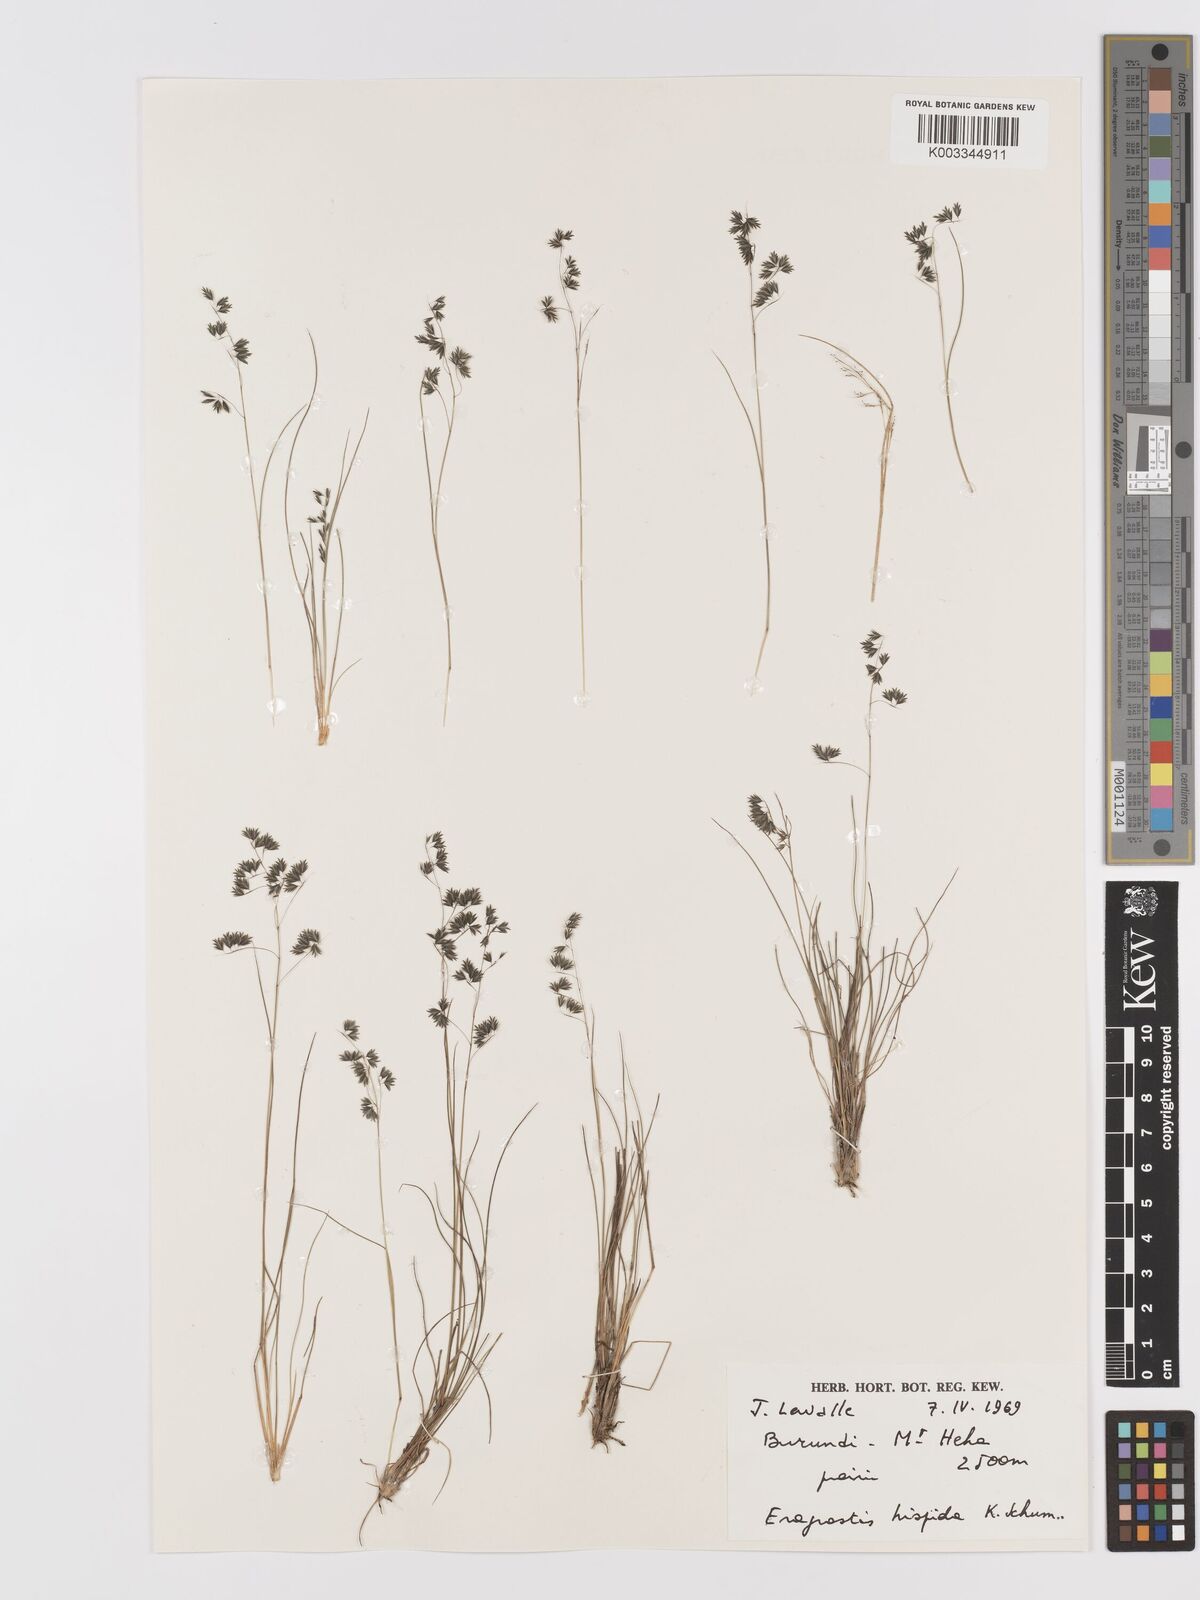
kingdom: Plantae
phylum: Tracheophyta
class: Liliopsida
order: Poales
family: Poaceae
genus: Eragrostis
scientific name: Eragrostis hispida
